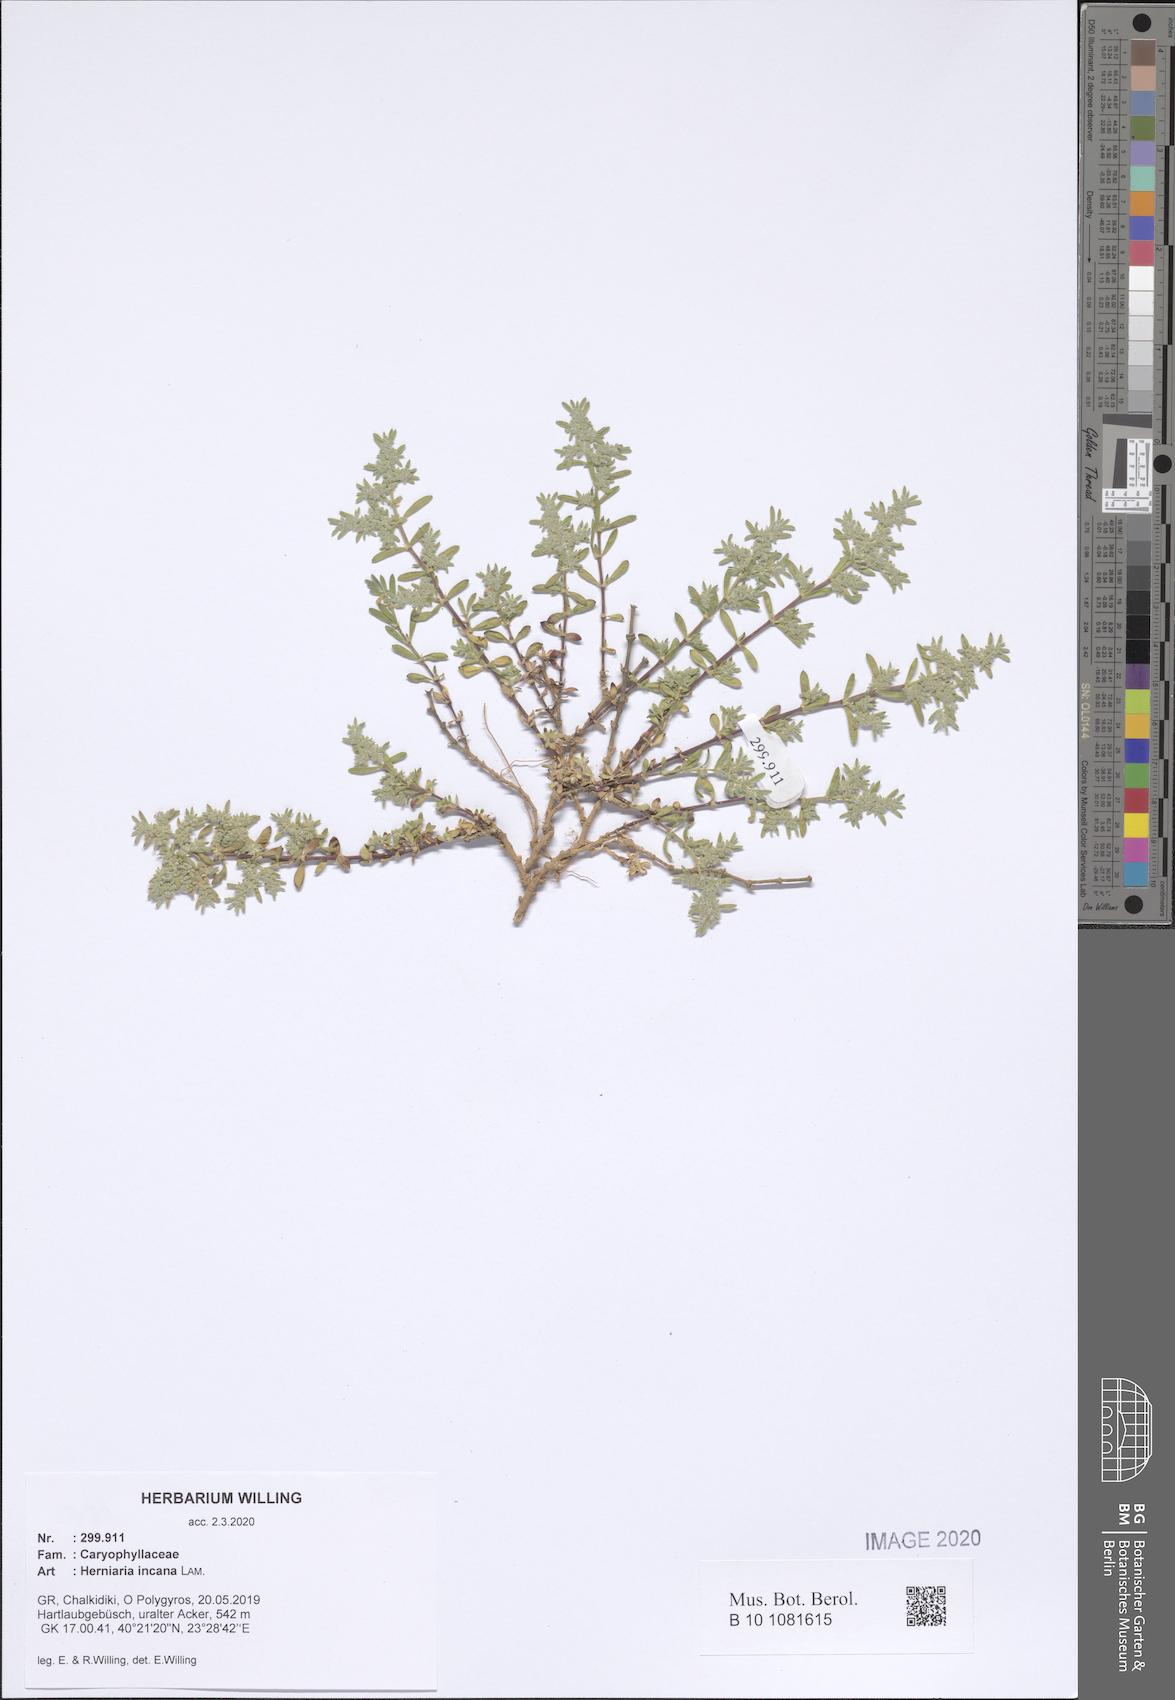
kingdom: Plantae
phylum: Tracheophyta
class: Magnoliopsida
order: Caryophyllales
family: Caryophyllaceae
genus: Herniaria
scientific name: Herniaria incana
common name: Gray rupturewort
